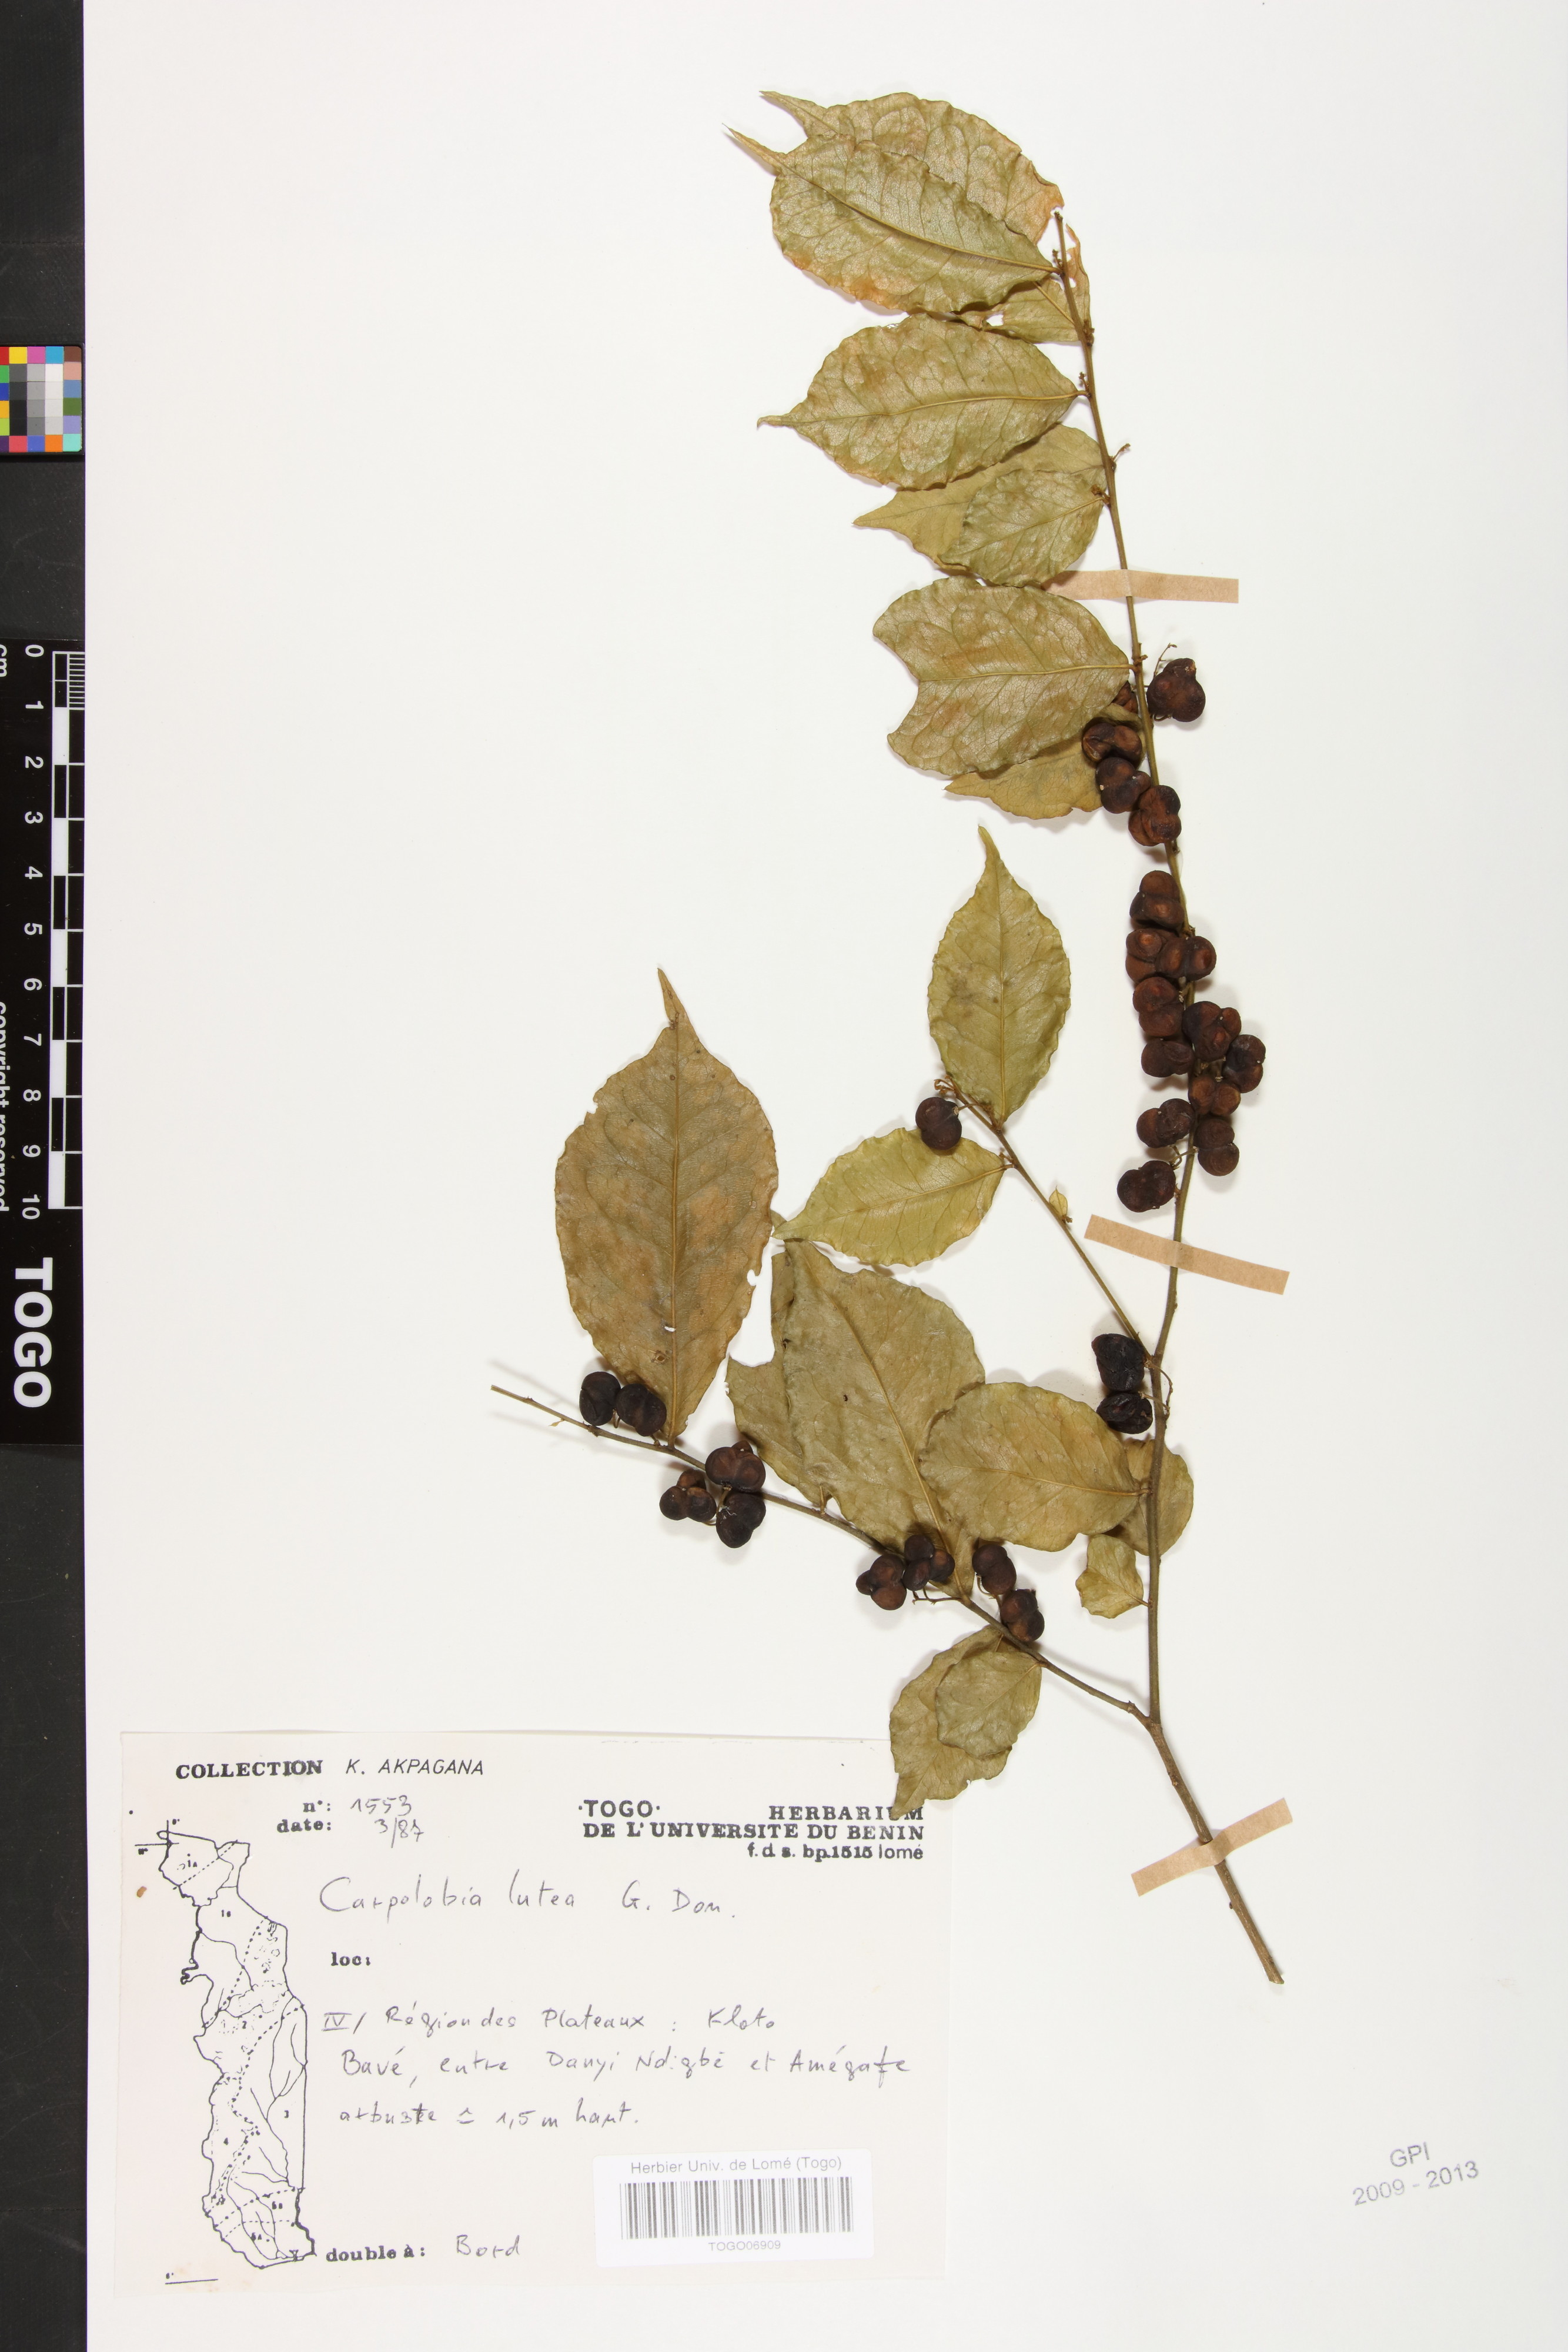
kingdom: Plantae
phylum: Tracheophyta
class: Magnoliopsida
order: Fabales
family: Polygalaceae
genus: Carpolobia
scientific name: Carpolobia lutea
